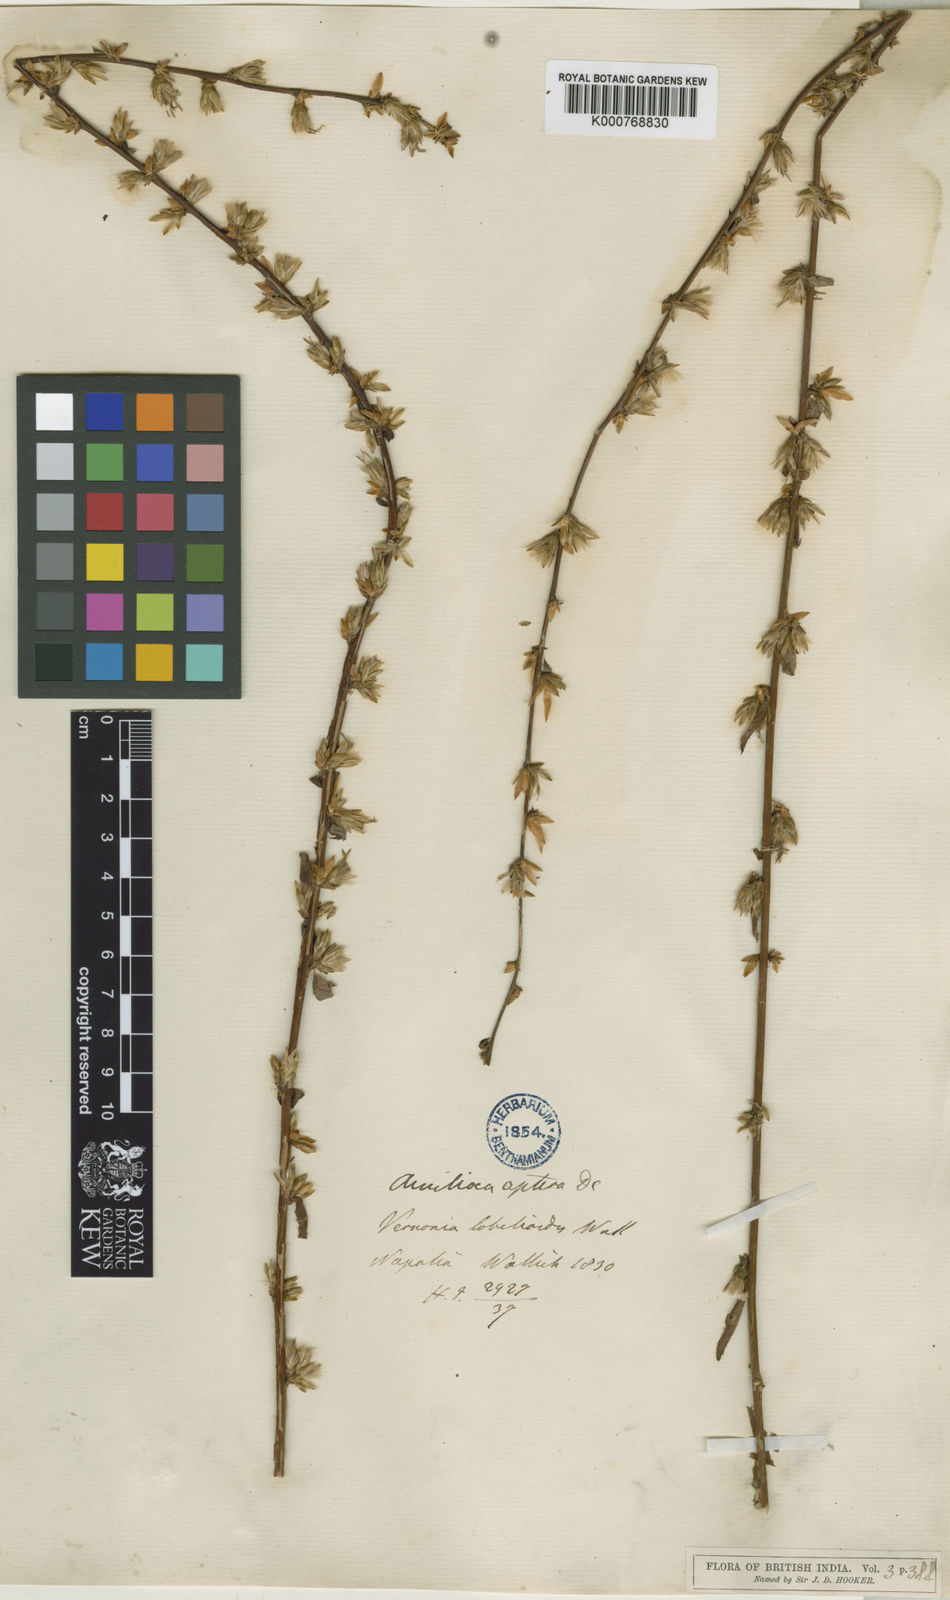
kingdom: Plantae
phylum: Tracheophyta
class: Magnoliopsida
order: Asterales
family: Asteraceae
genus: Ainsliaea
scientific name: Ainsliaea aptera
